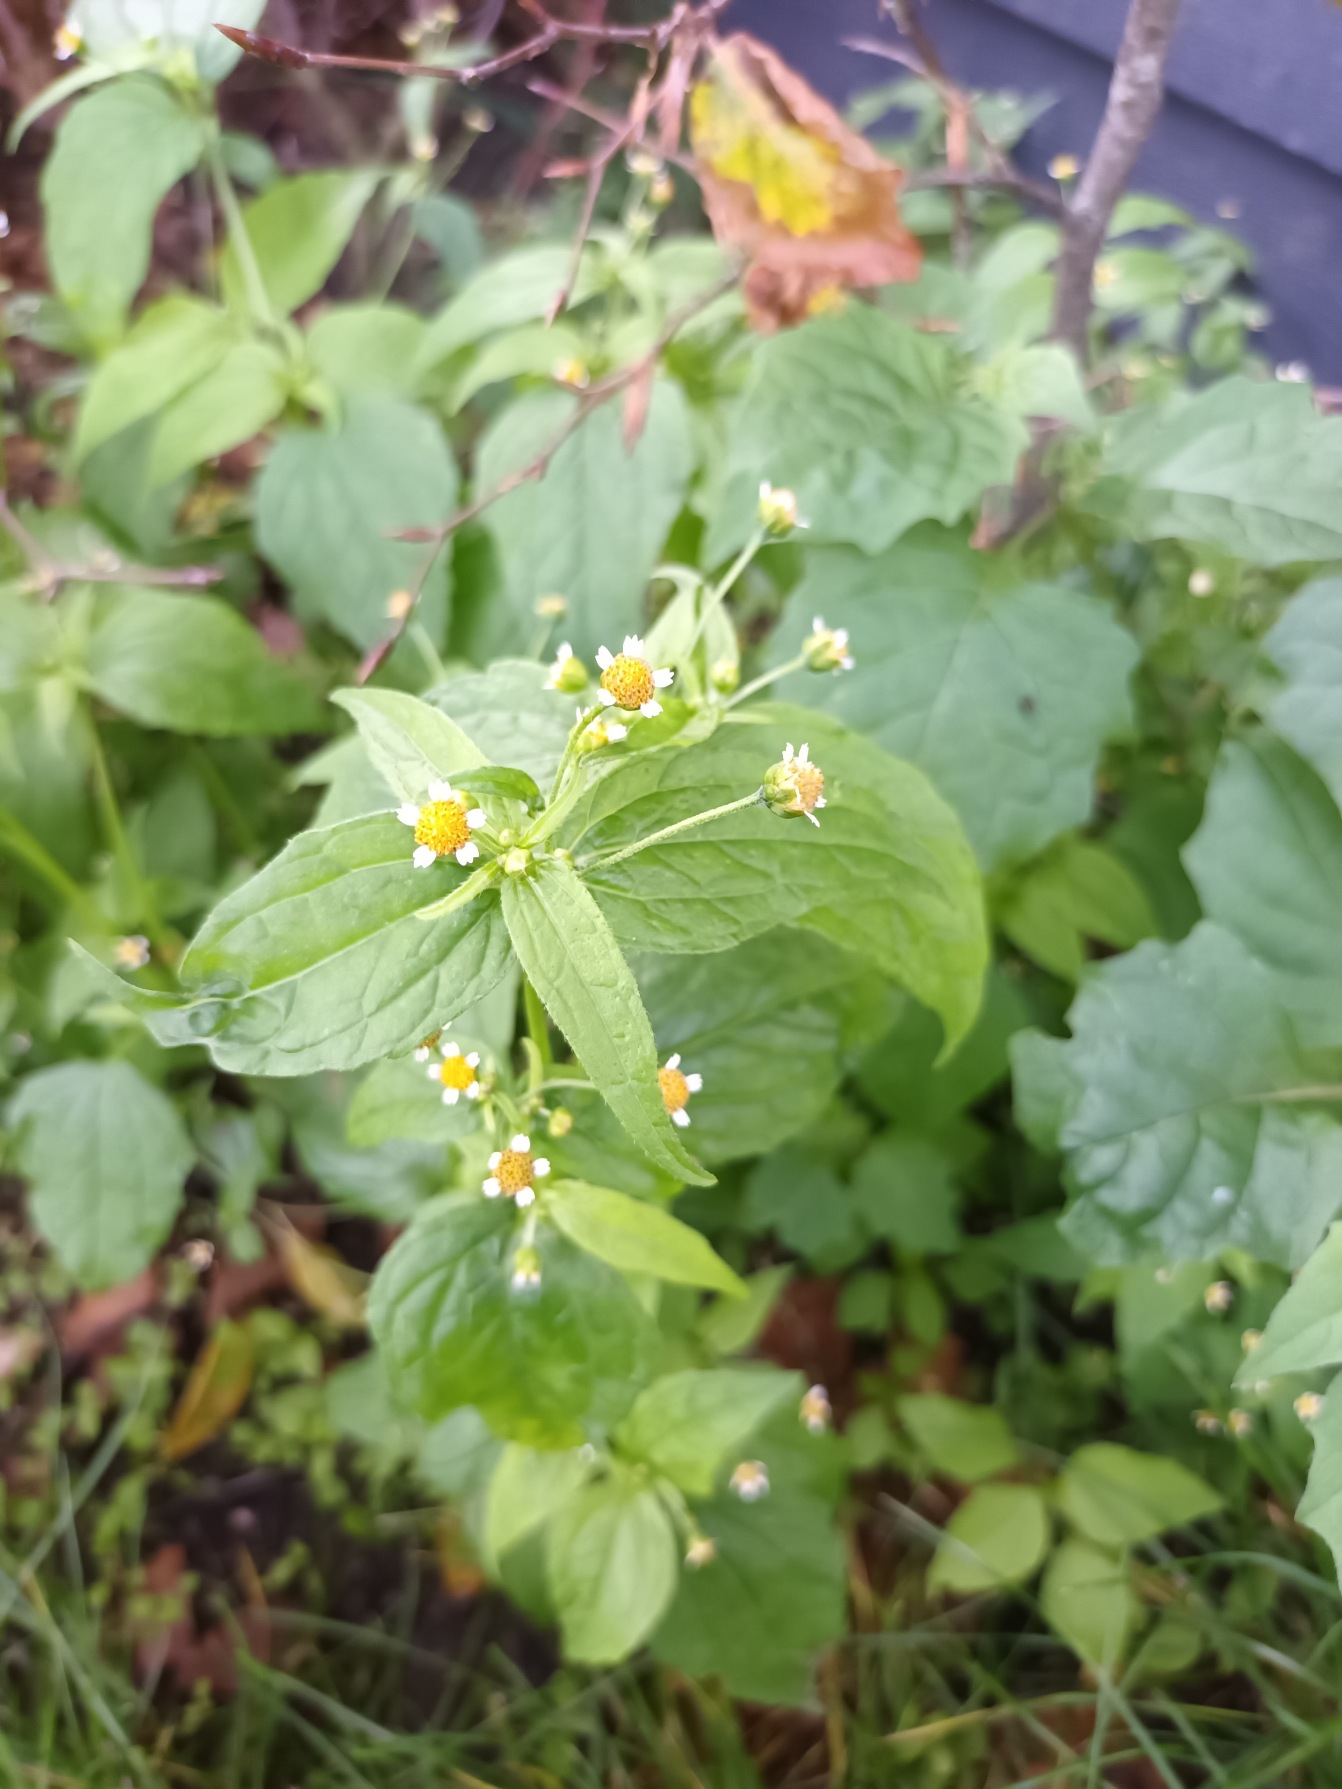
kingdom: Plantae
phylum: Tracheophyta
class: Magnoliopsida
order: Asterales
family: Asteraceae
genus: Galinsoga
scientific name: Galinsoga parviflora
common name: Håret kortstråle
